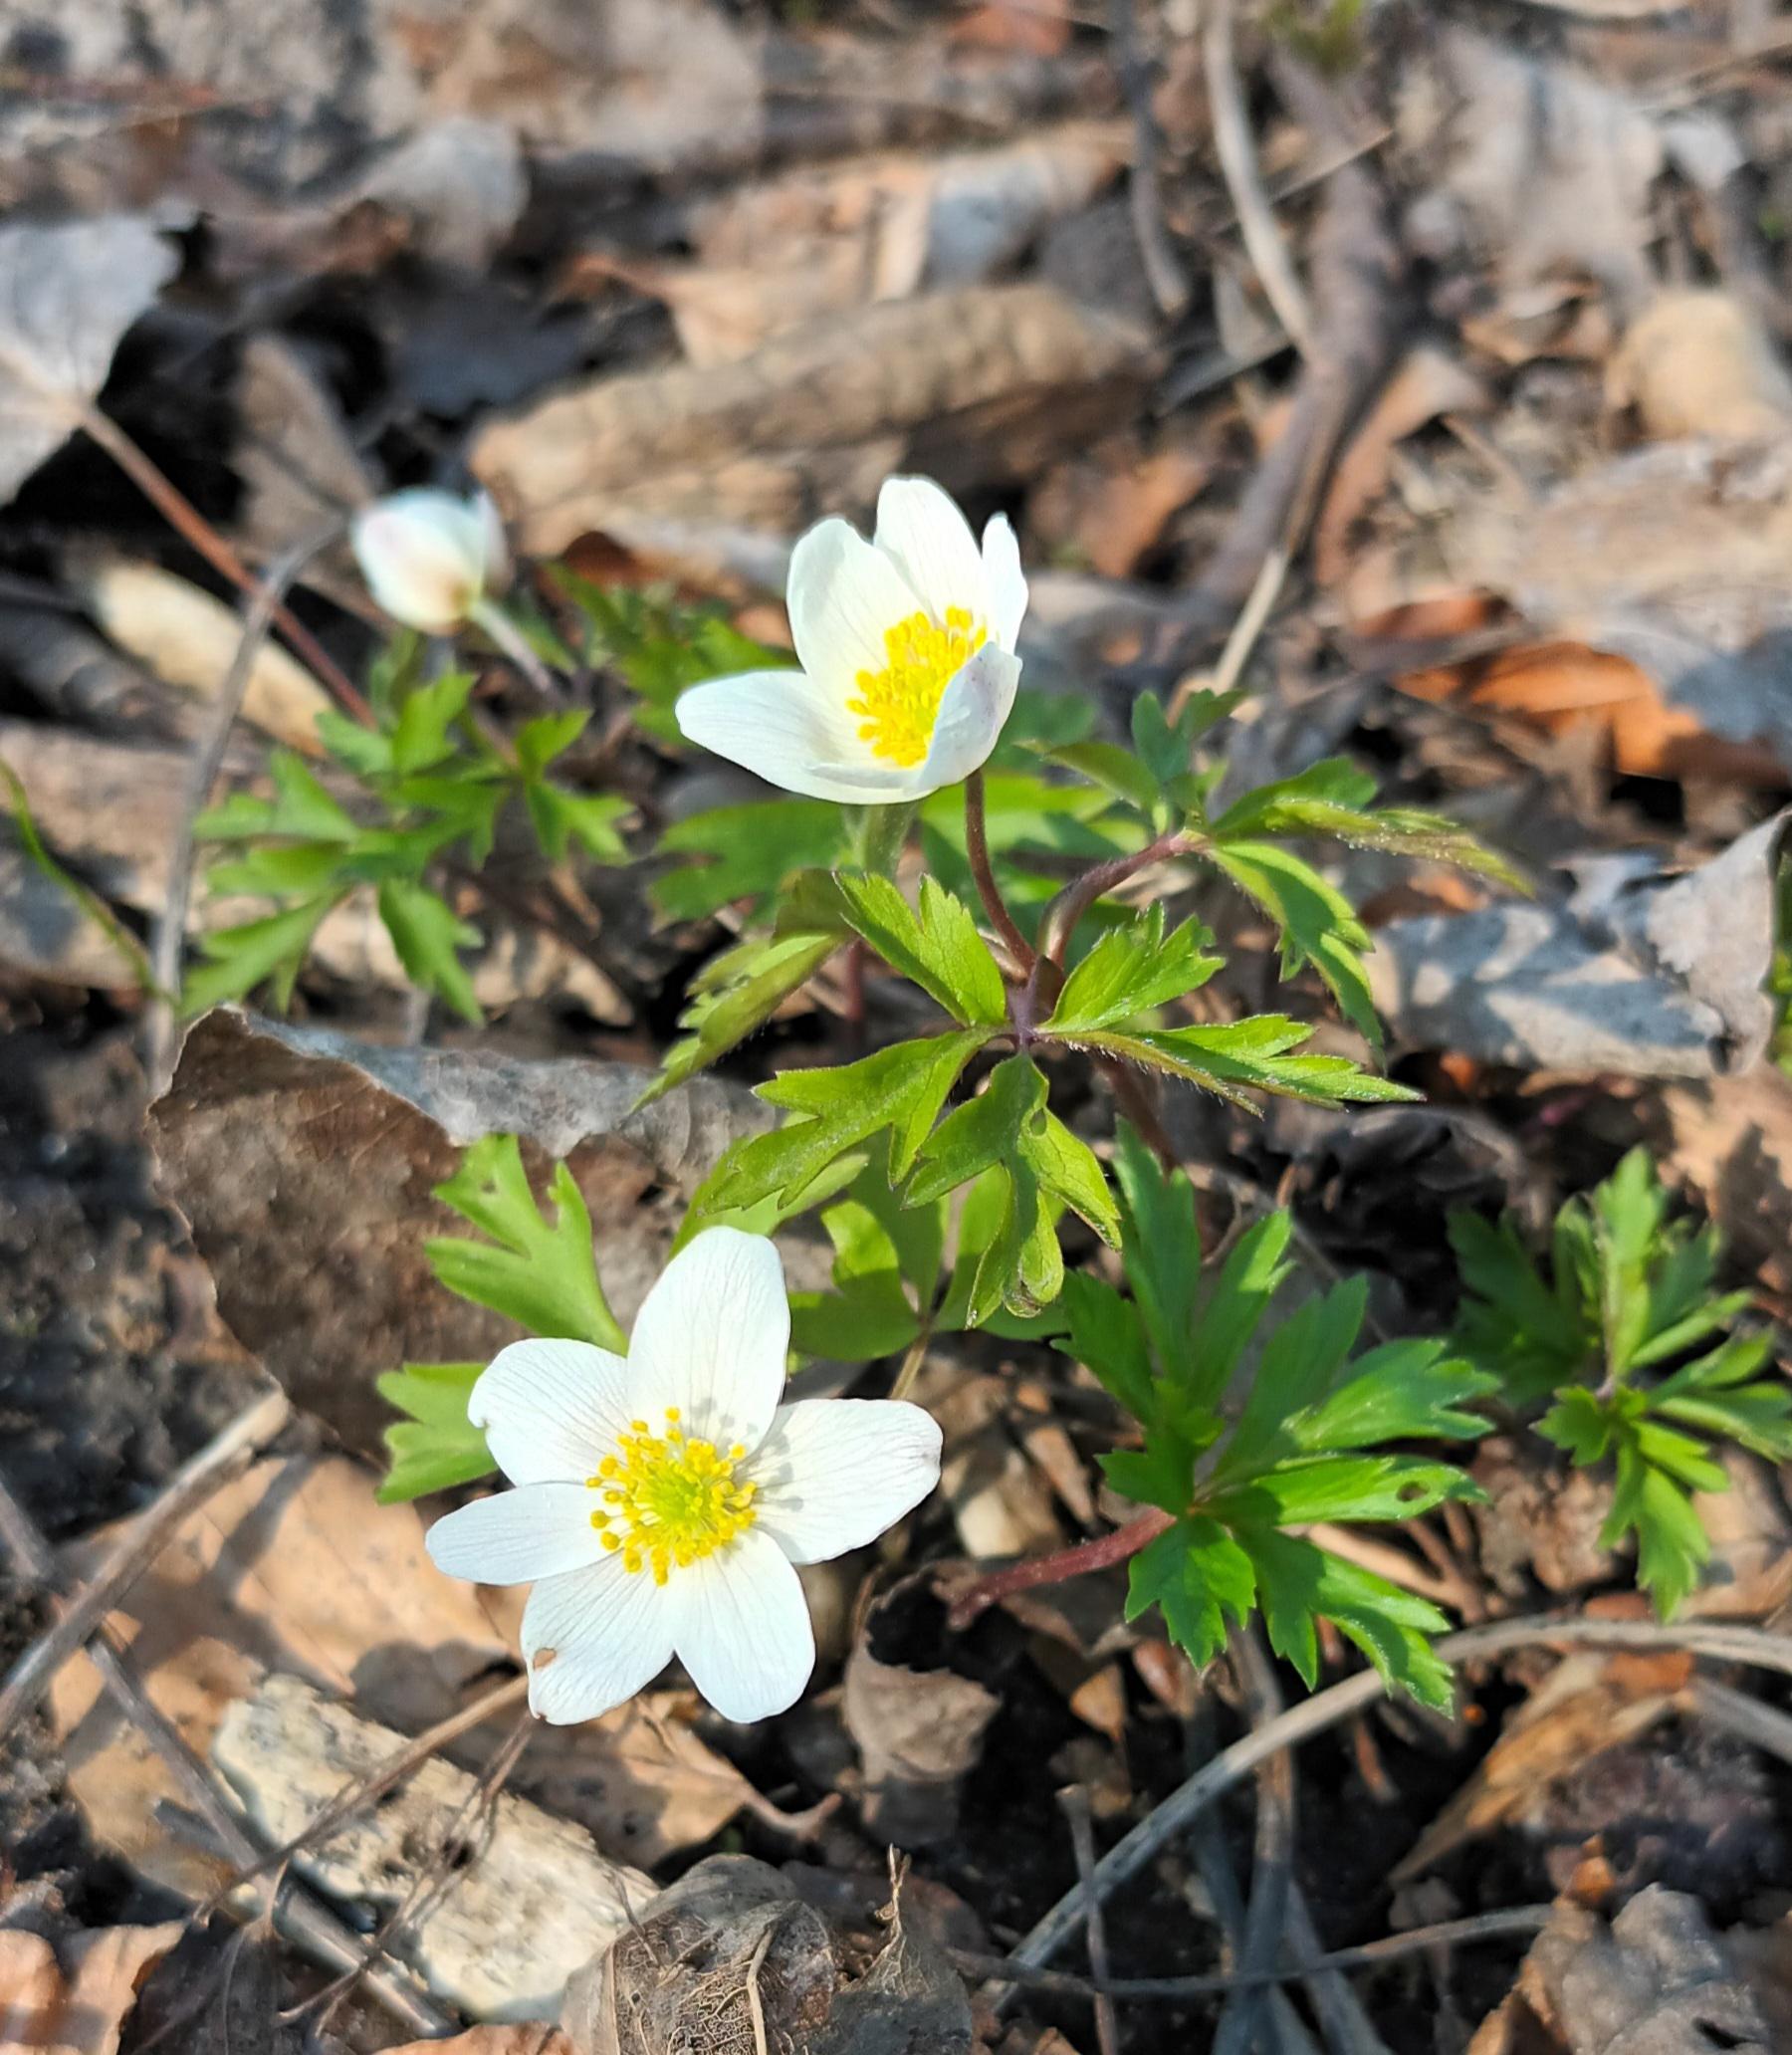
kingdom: Plantae
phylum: Tracheophyta
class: Magnoliopsida
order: Ranunculales
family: Ranunculaceae
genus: Anemone
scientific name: Anemone nemorosa
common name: Hvid anemone
